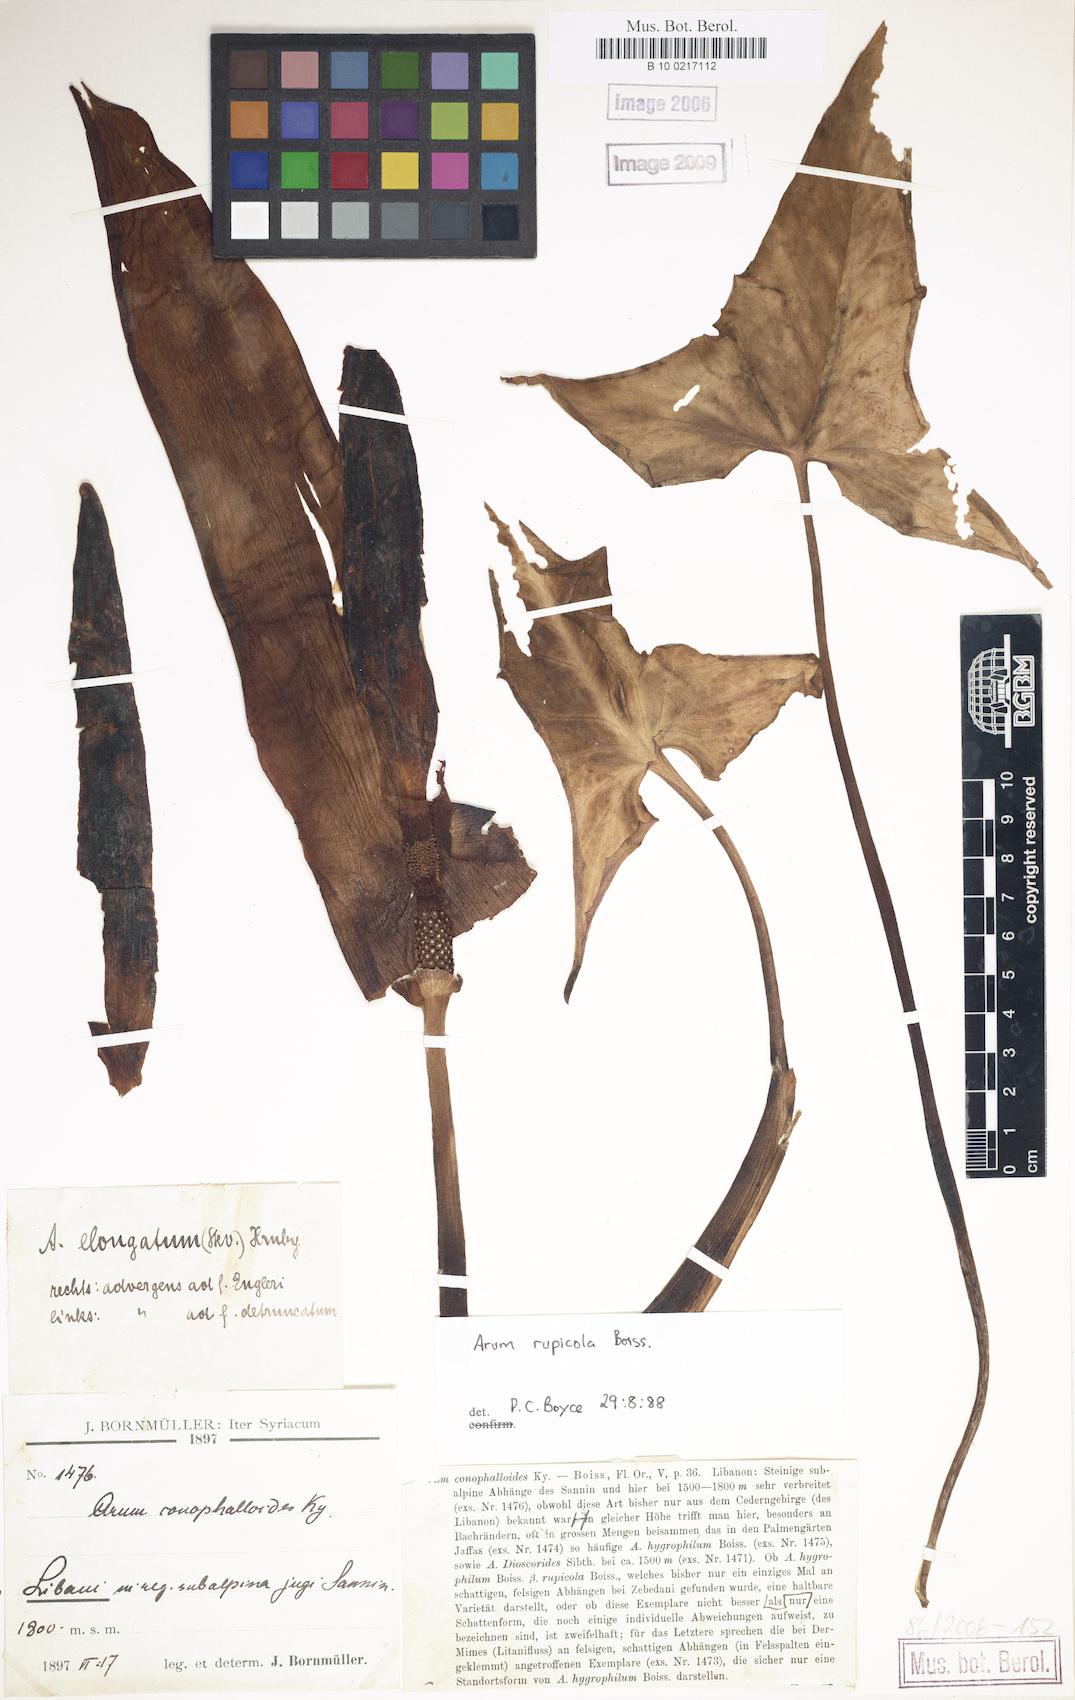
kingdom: Plantae
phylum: Tracheophyta
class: Liliopsida
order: Alismatales
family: Araceae
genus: Arum
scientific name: Arum rupicola
